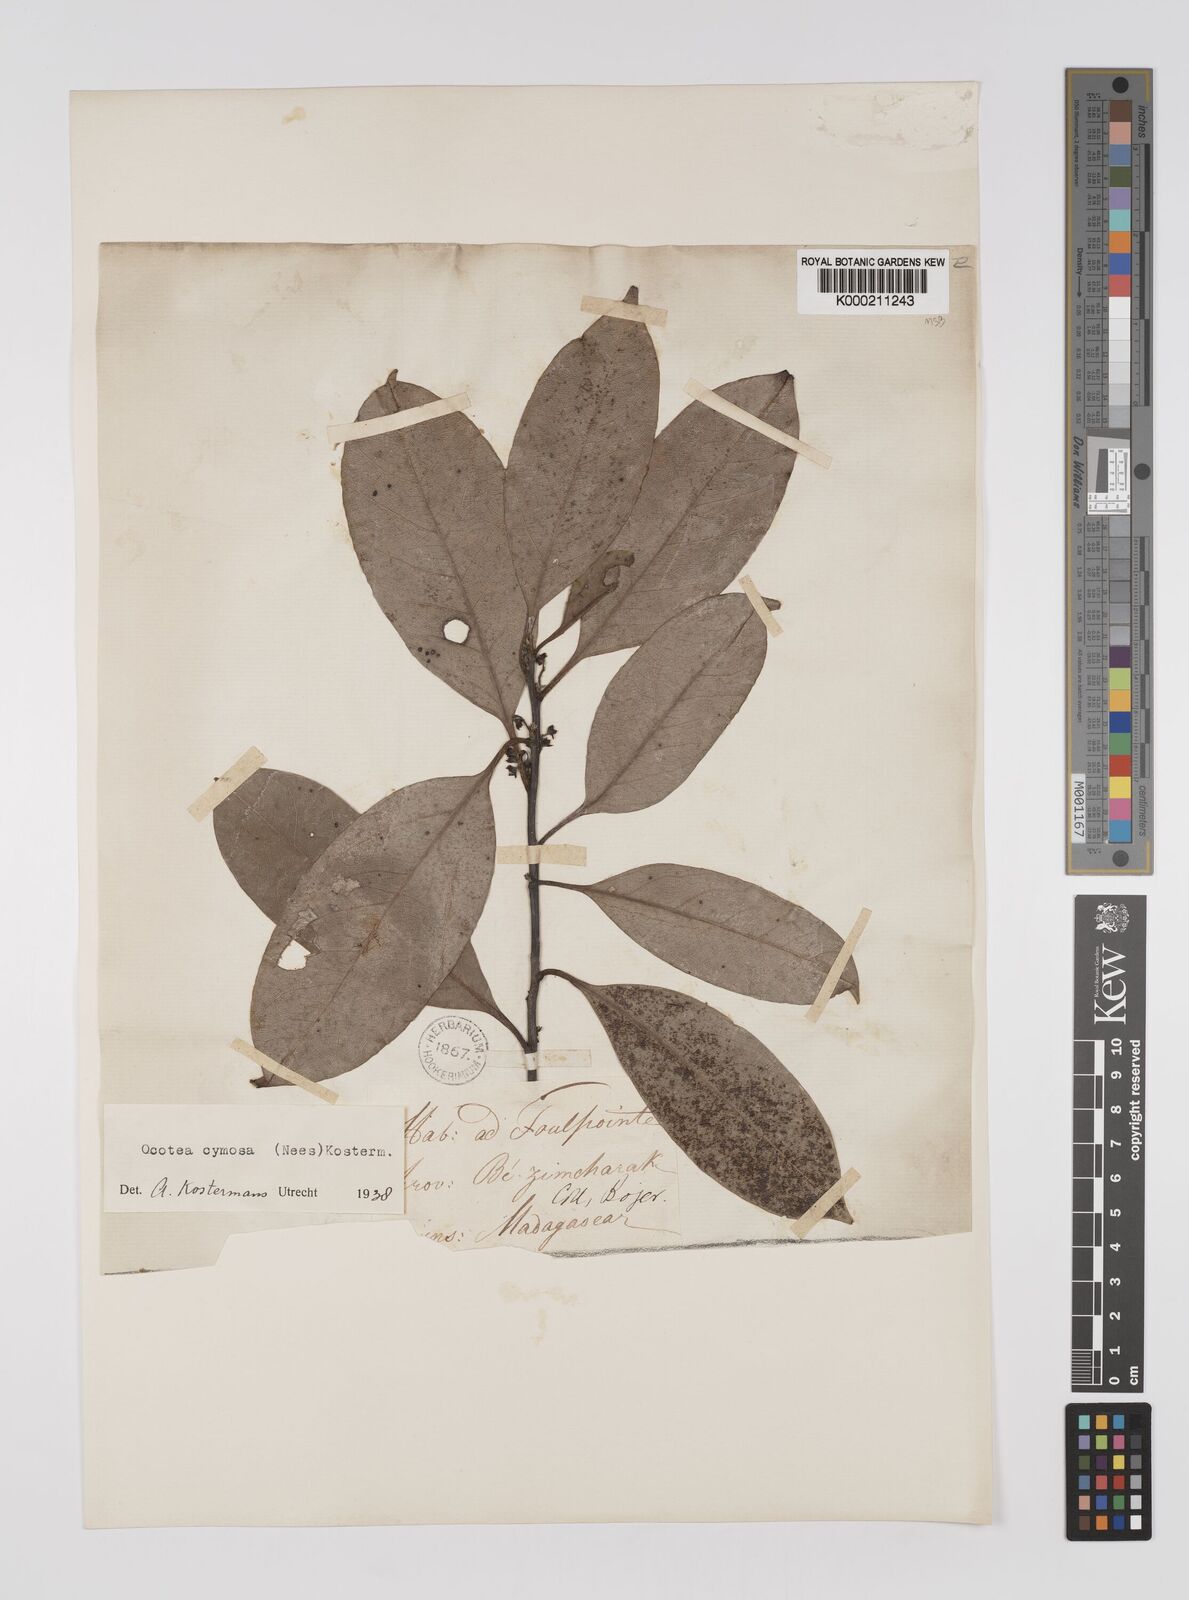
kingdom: Plantae
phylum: Tracheophyta
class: Magnoliopsida
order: Laurales
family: Lauraceae
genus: Mespilodaphne
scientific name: Mespilodaphne cymosa
